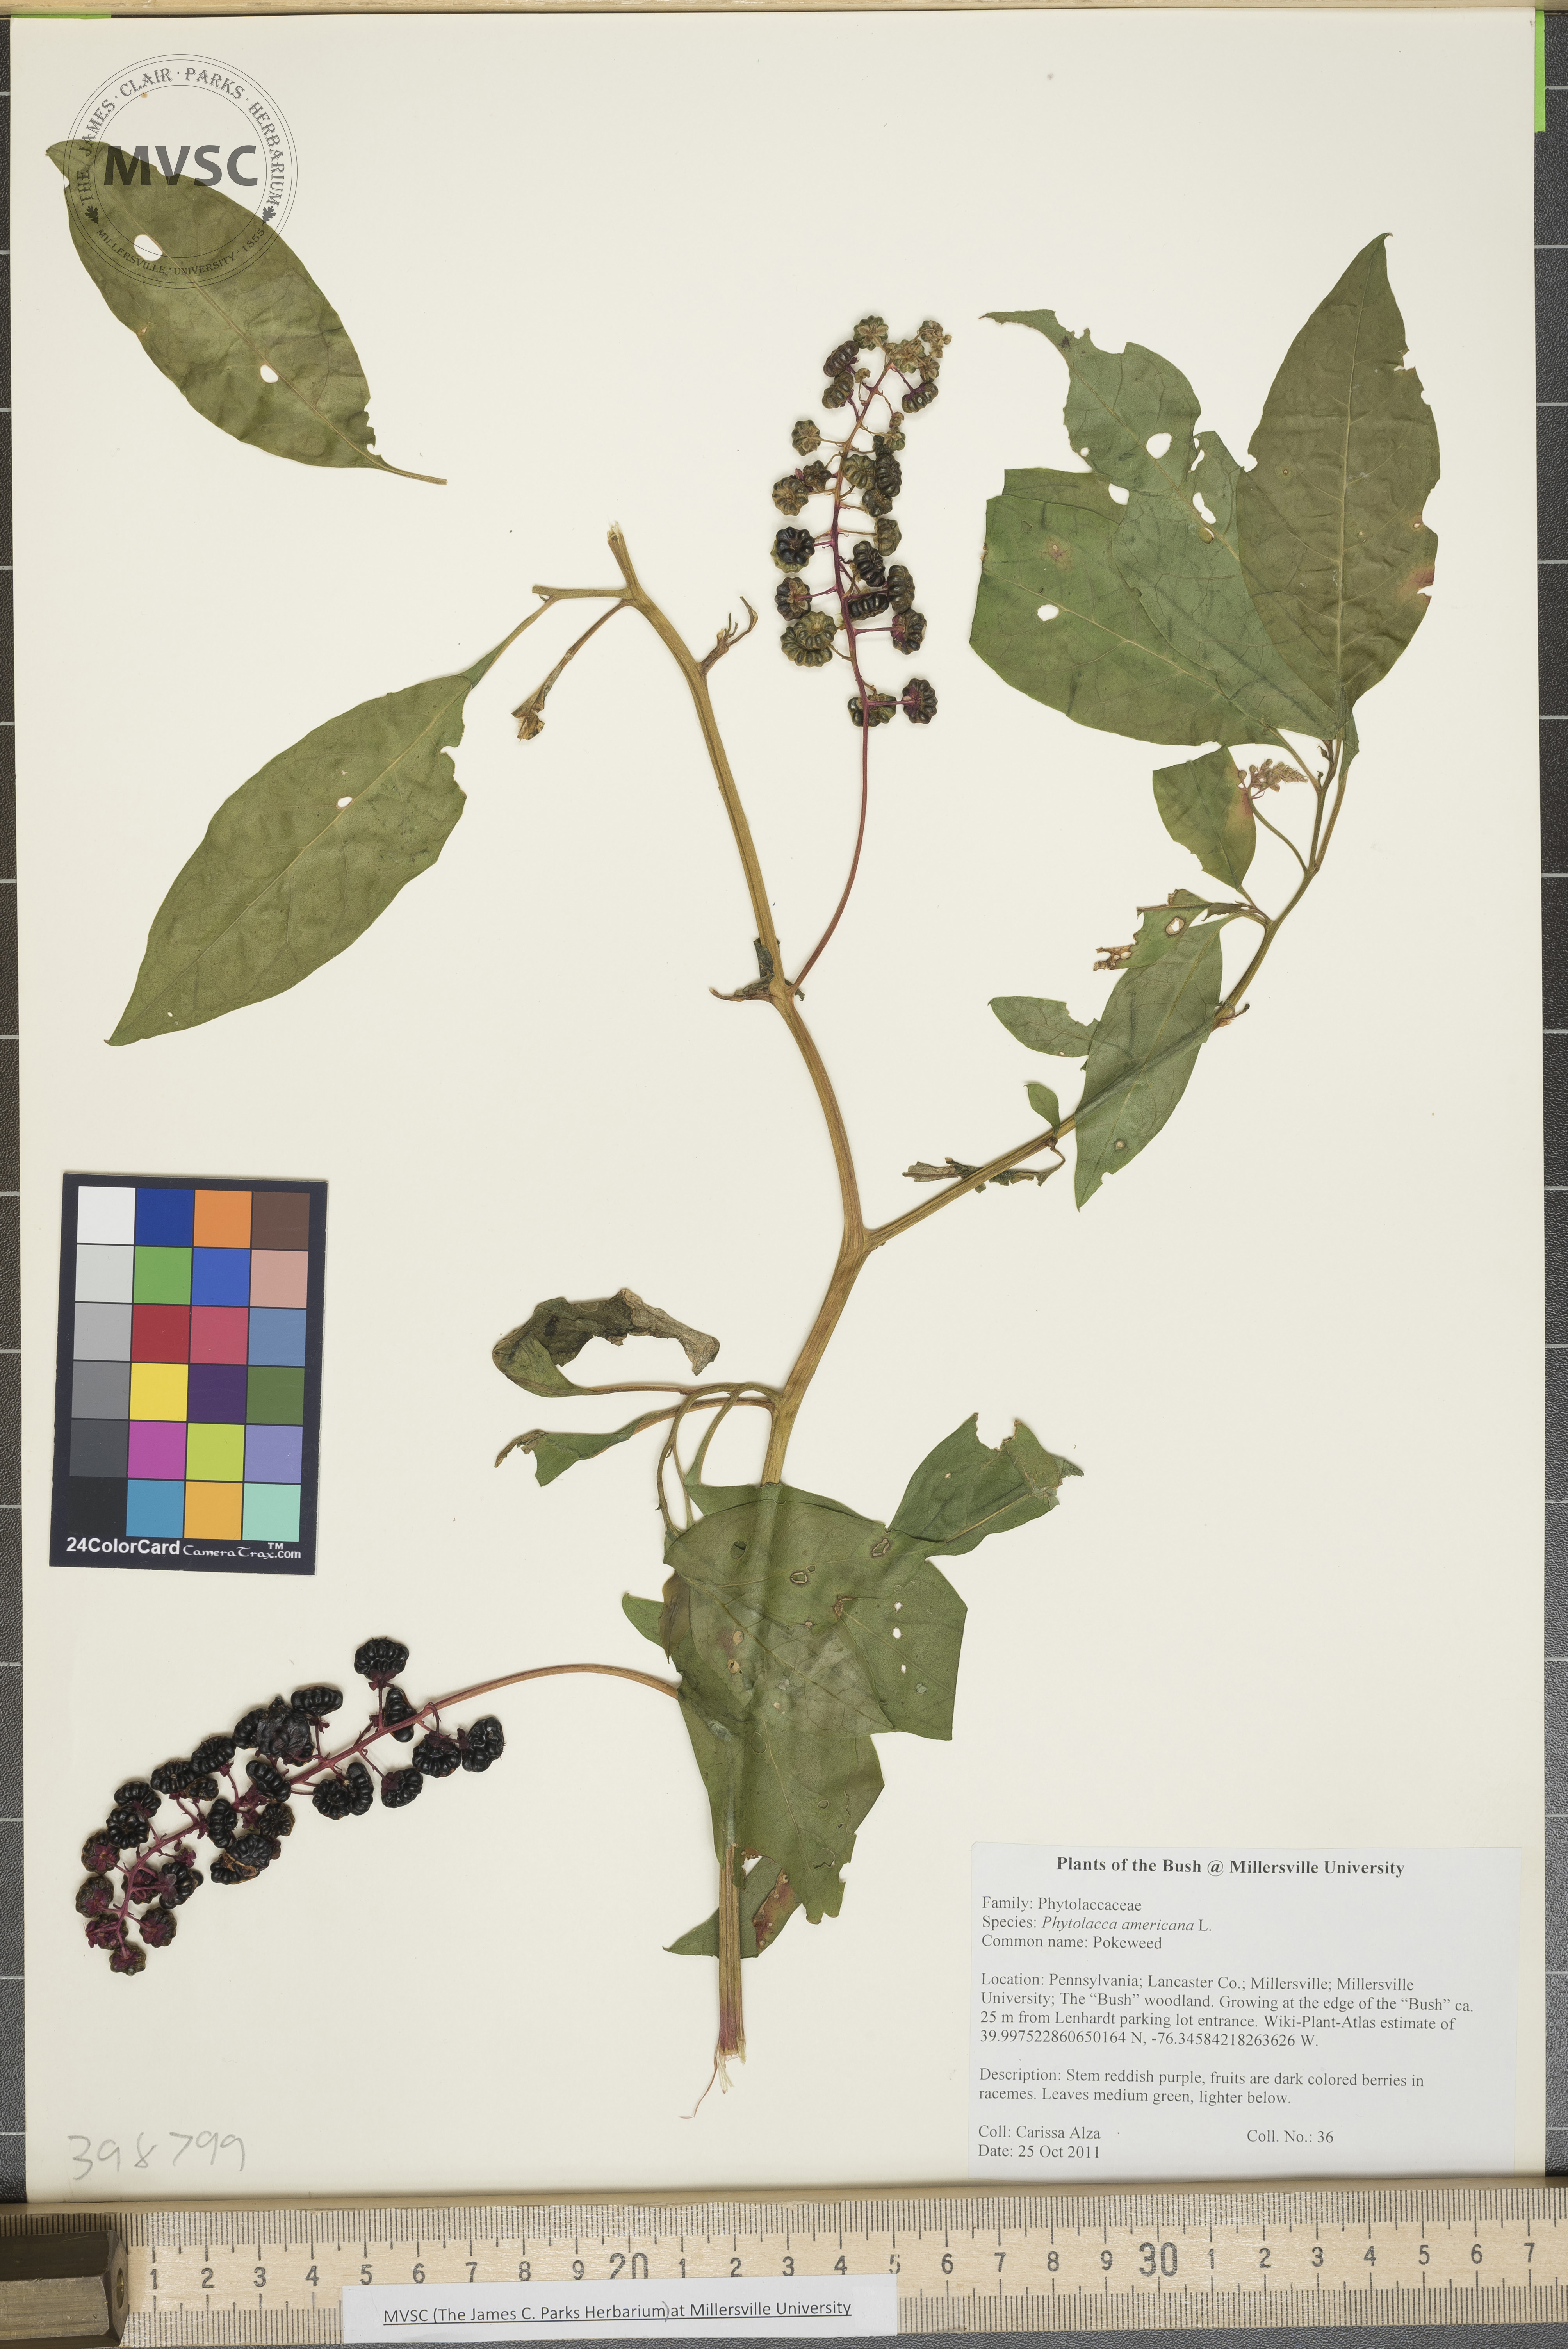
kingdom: Plantae
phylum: Tracheophyta
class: Magnoliopsida
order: Caryophyllales
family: Phytolaccaceae
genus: Phytolacca
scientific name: Phytolacca americana
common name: Pokeweed
